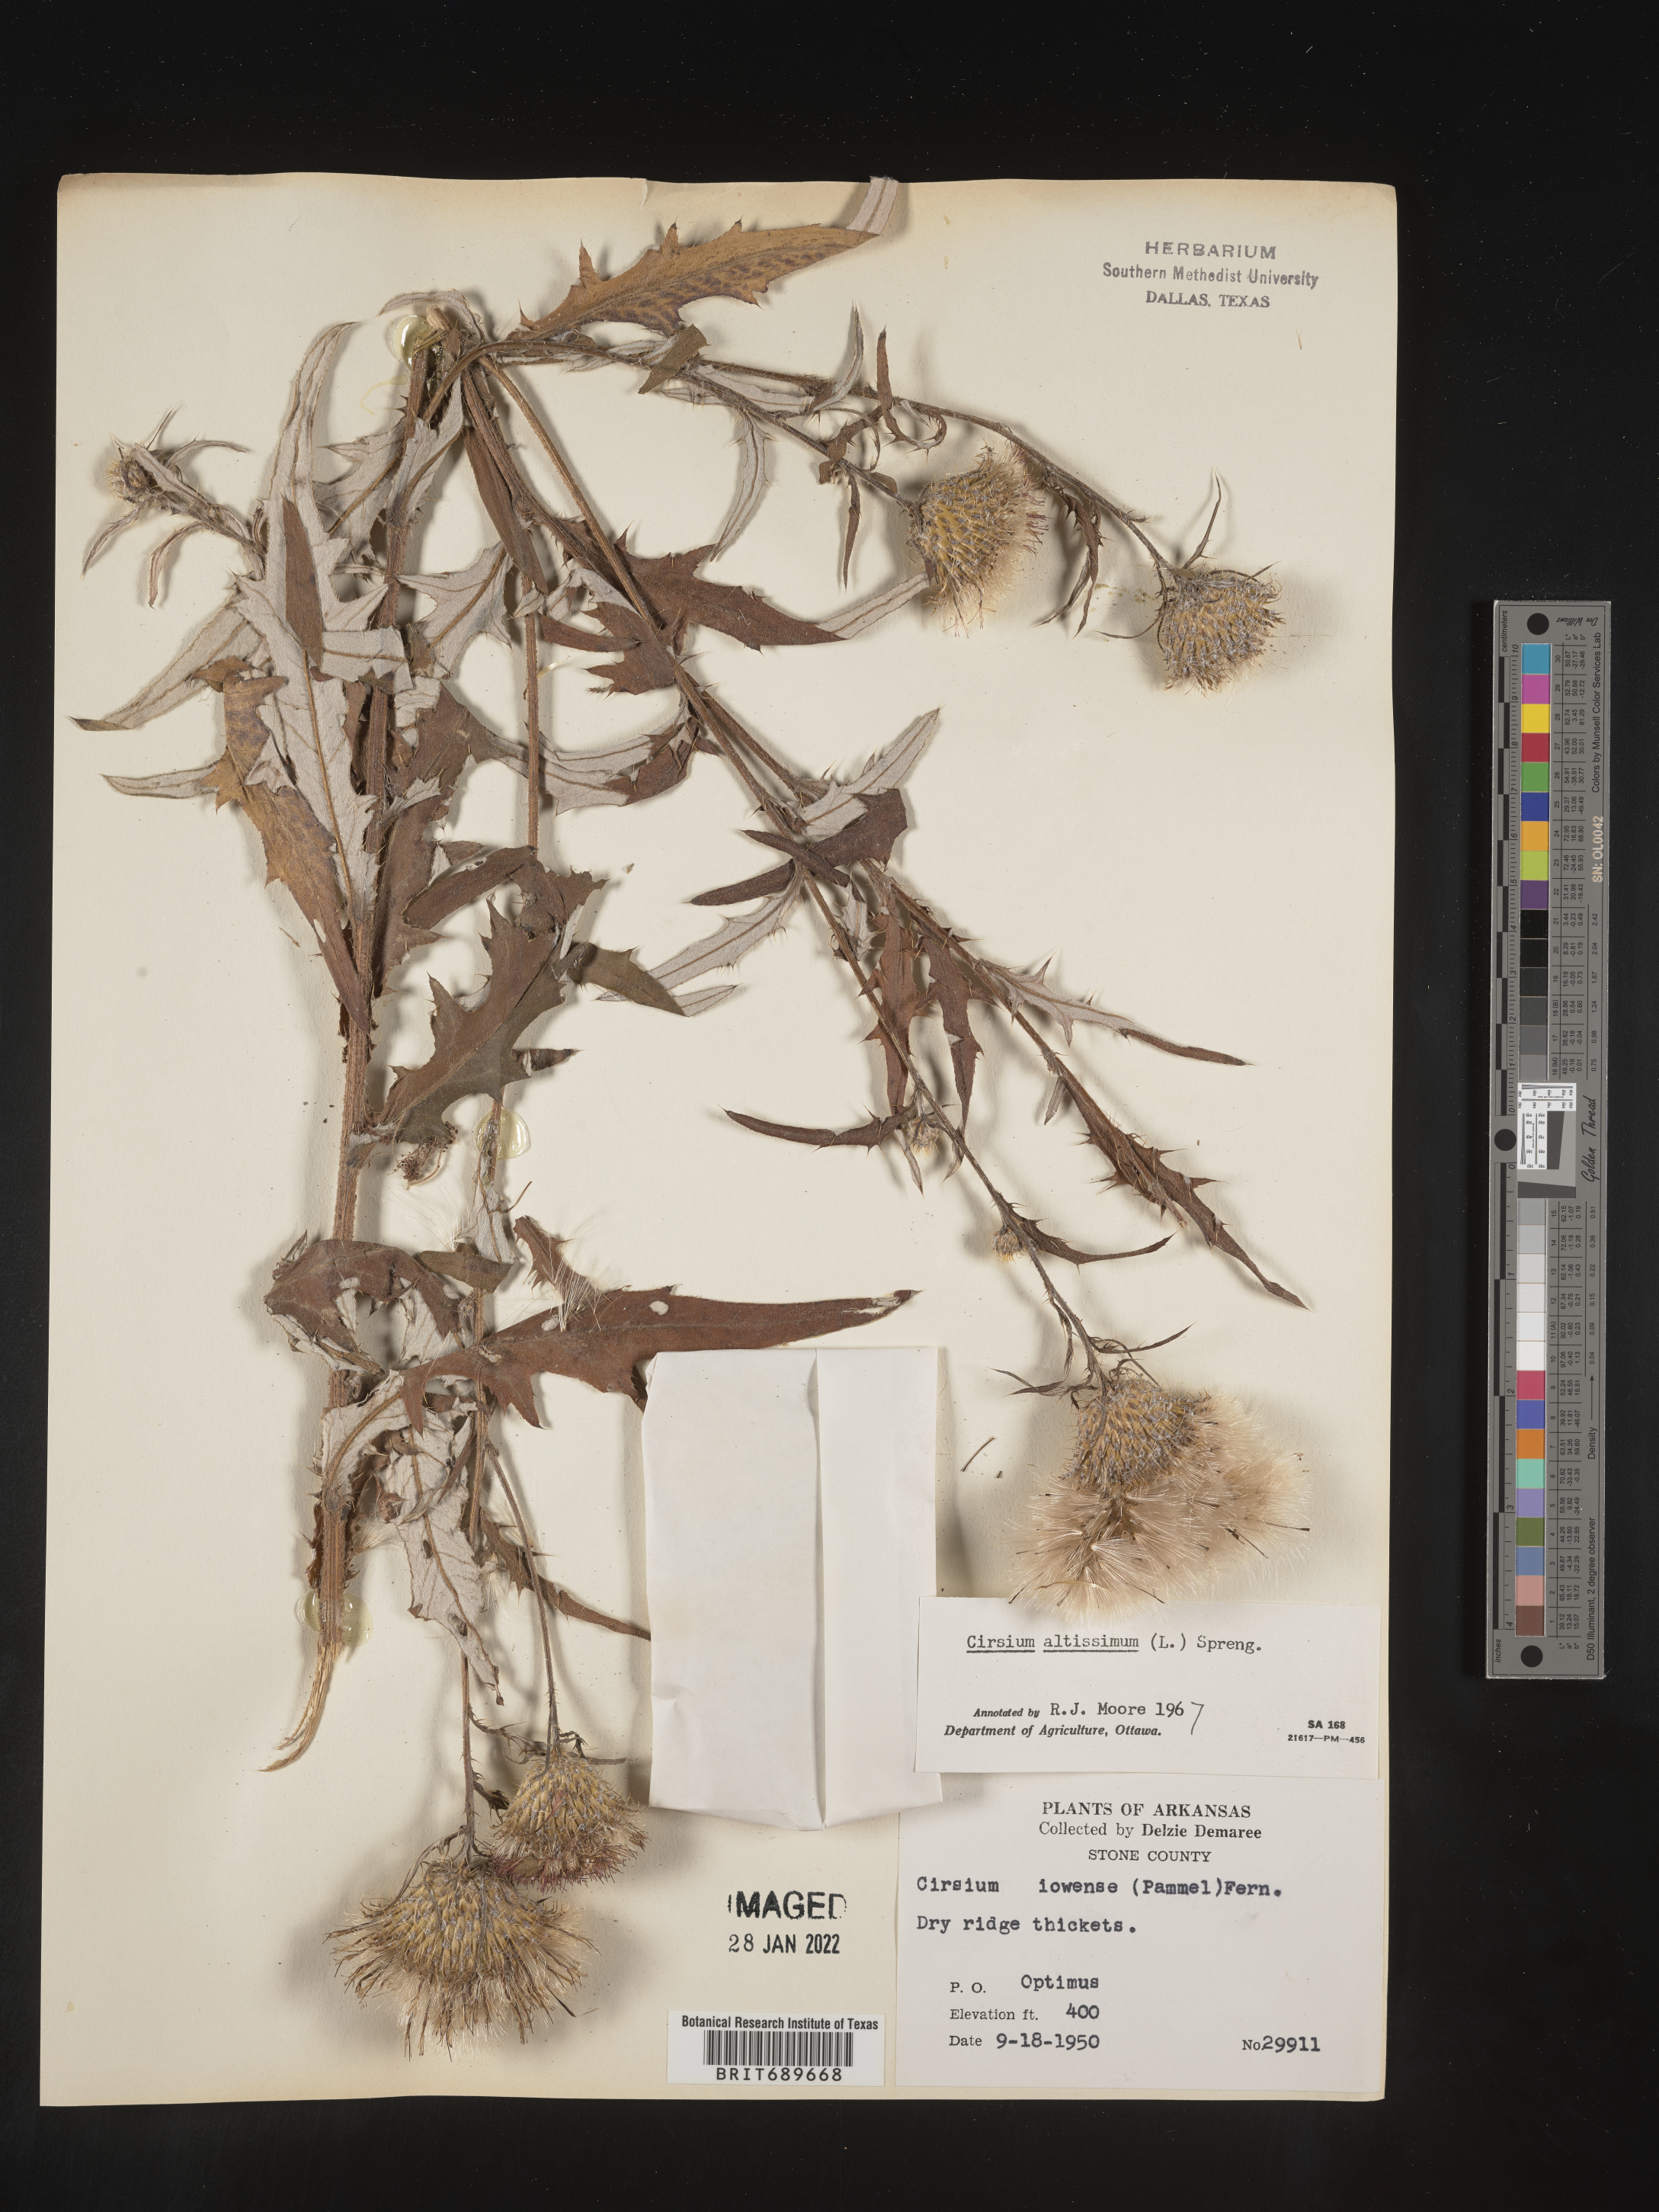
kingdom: Plantae
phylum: Tracheophyta
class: Magnoliopsida
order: Asterales
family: Asteraceae
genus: Cirsium
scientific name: Cirsium altissimum
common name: Roadside thistle
